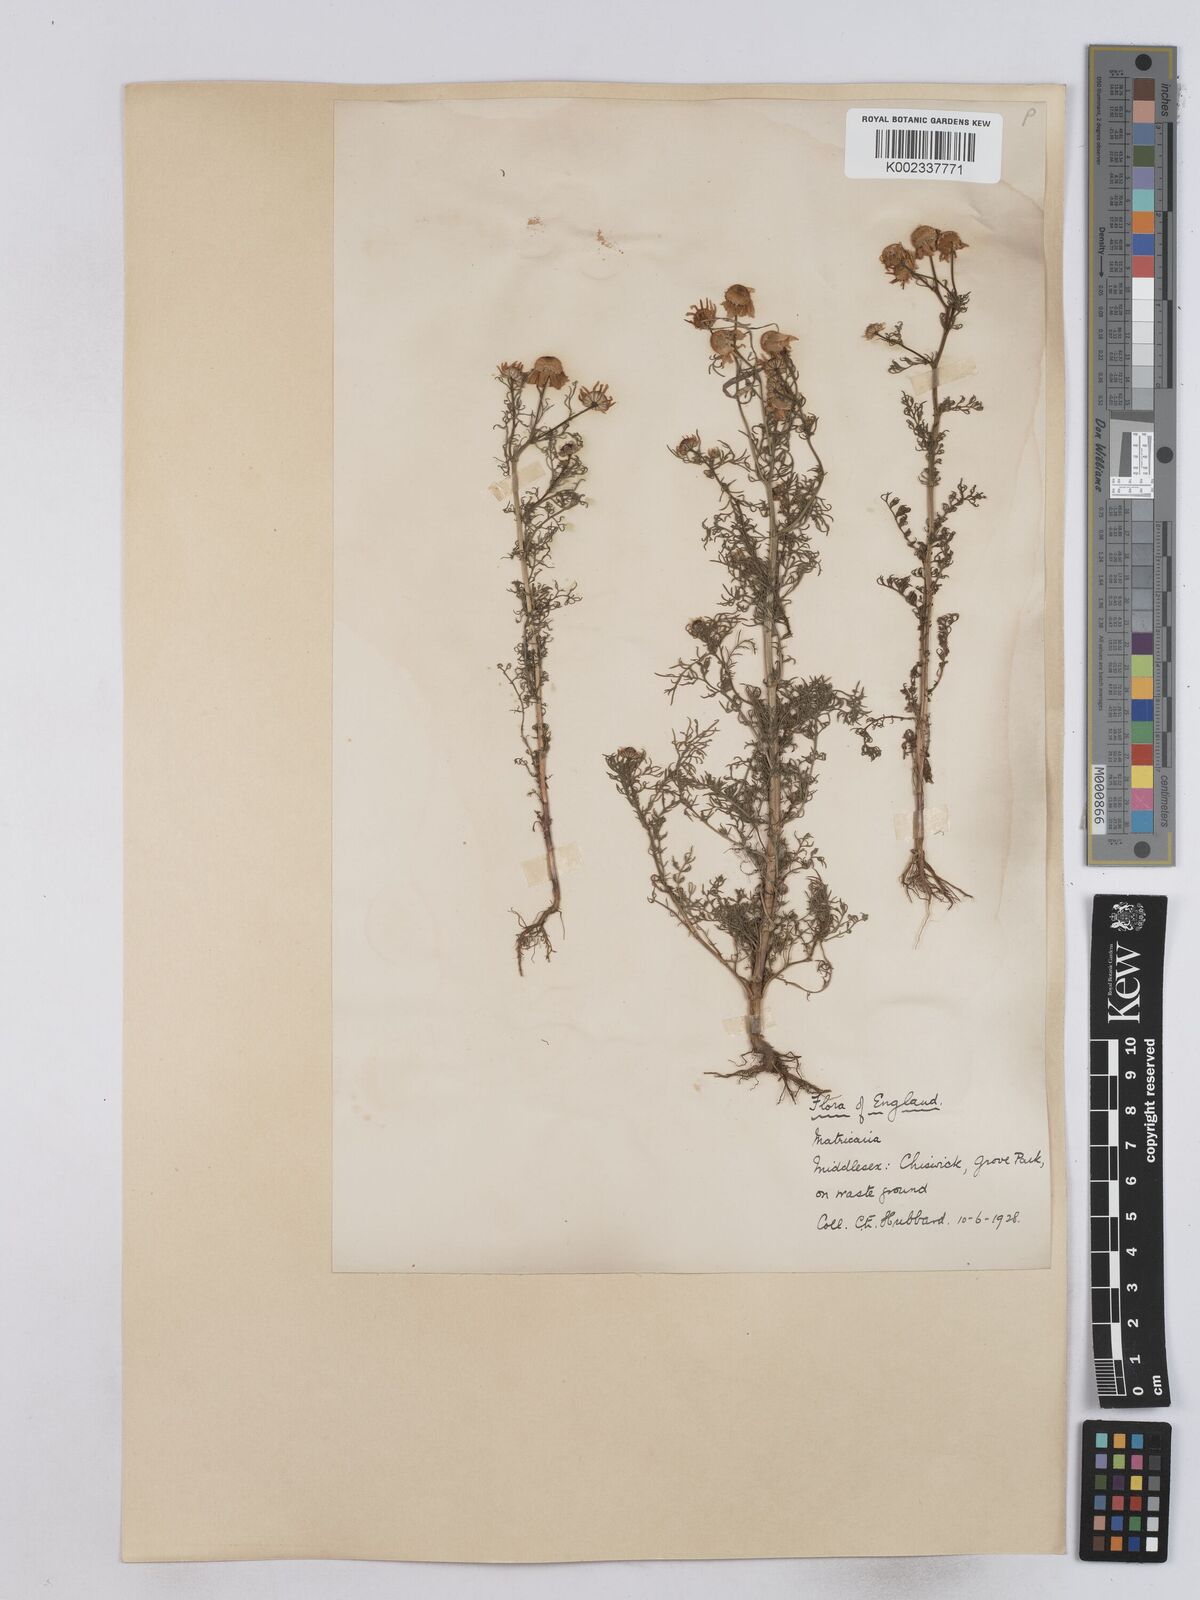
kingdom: Plantae
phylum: Tracheophyta
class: Magnoliopsida
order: Asterales
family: Asteraceae
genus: Matricaria
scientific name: Matricaria chamomilla
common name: Scented mayweed
